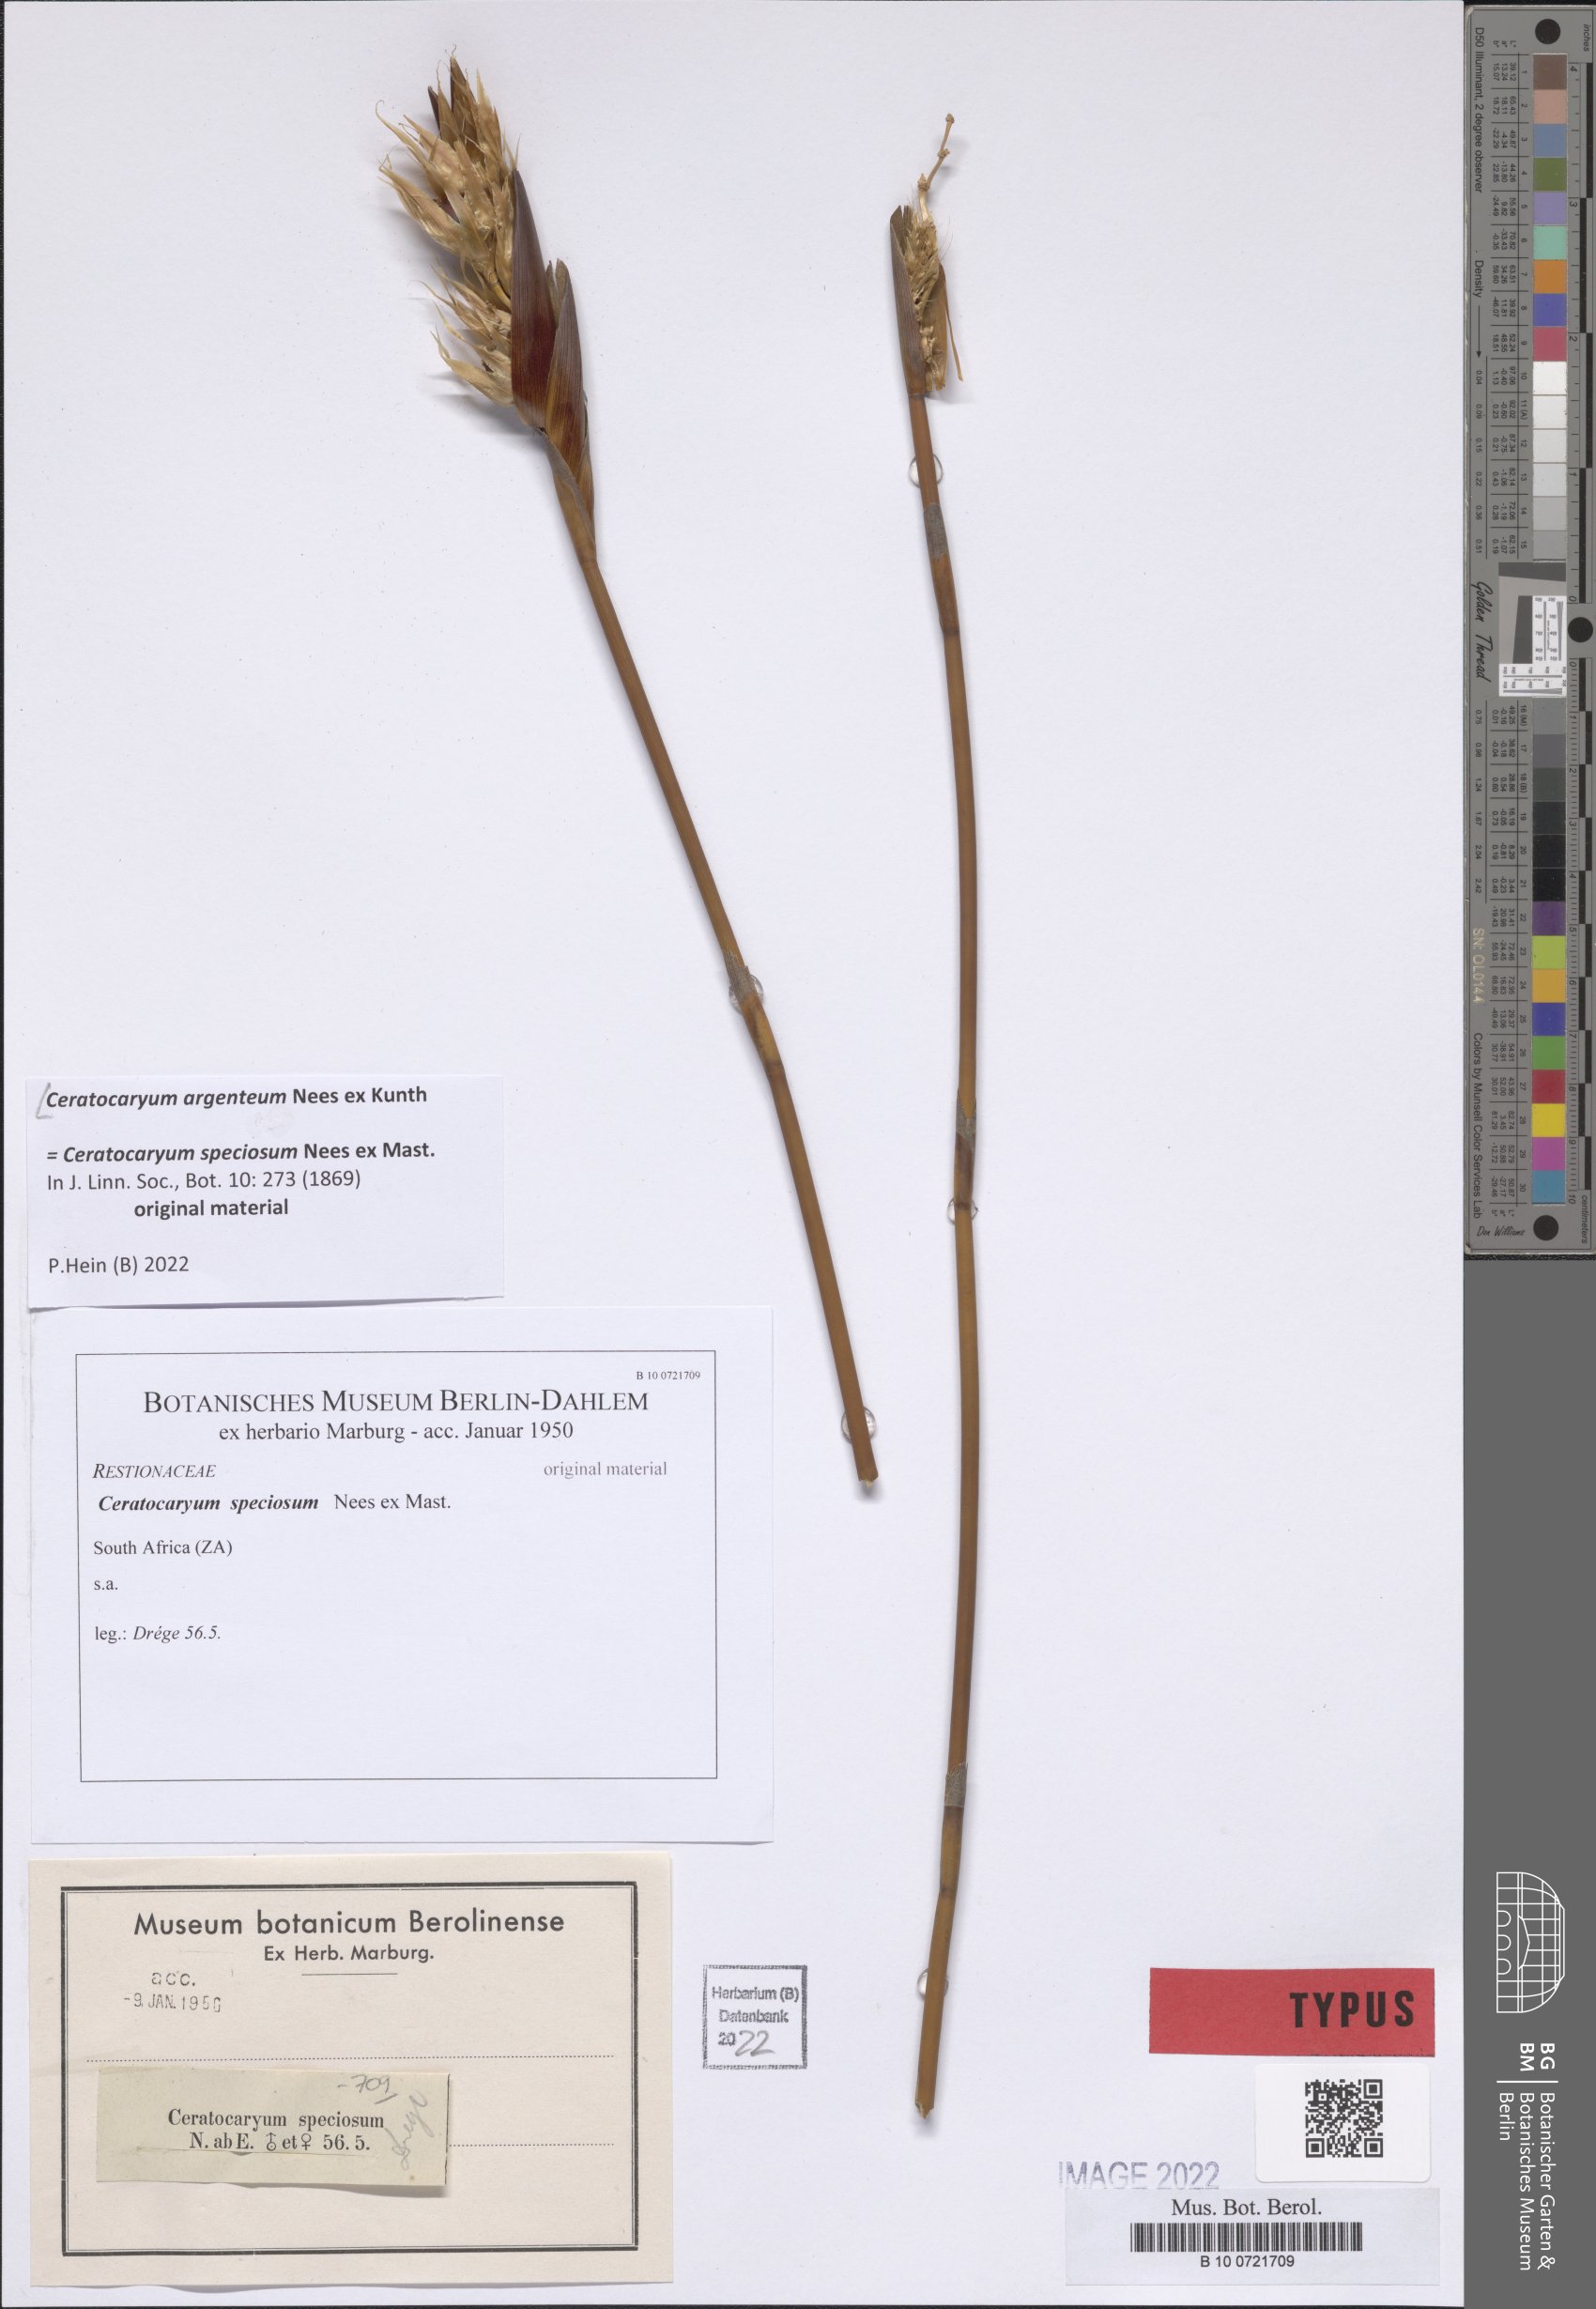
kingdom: Plantae
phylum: Tracheophyta
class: Liliopsida
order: Poales
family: Restionaceae
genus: Ceratocaryum
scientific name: Ceratocaryum argenteum
